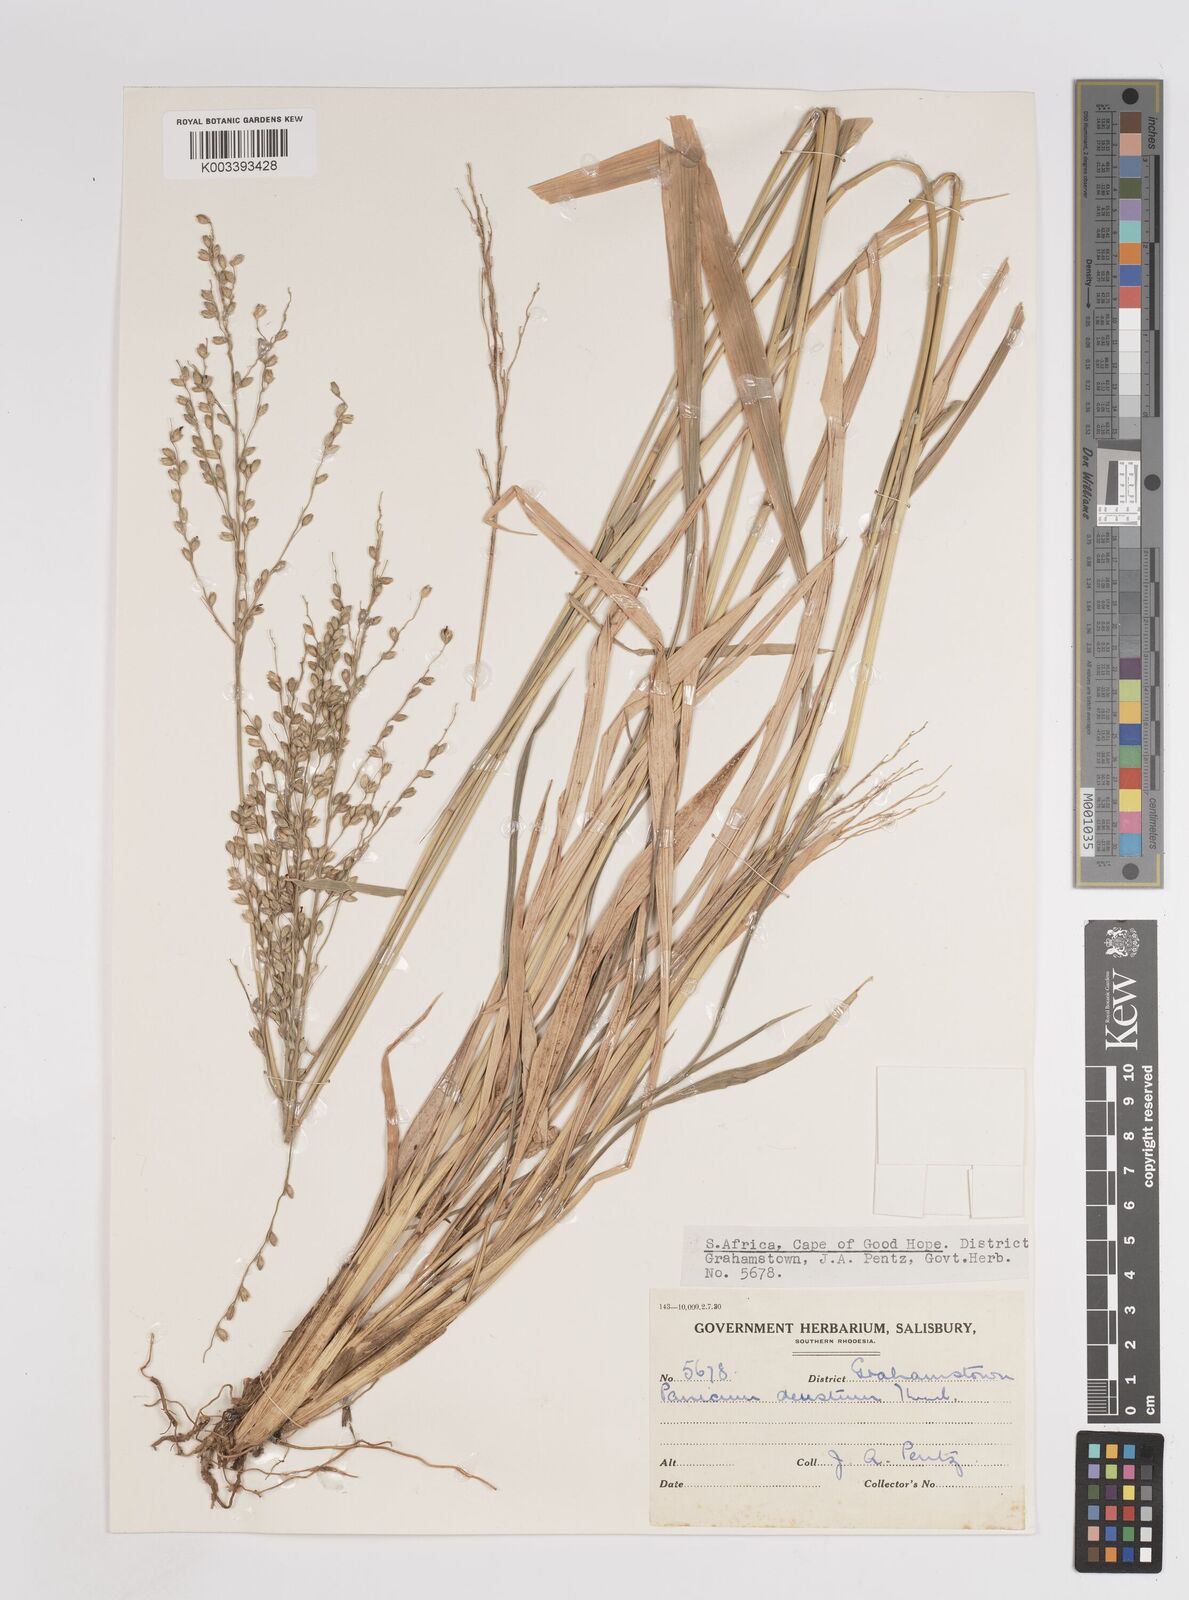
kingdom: Plantae
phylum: Tracheophyta
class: Liliopsida
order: Poales
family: Poaceae
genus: Panicum
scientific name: Panicum deustum
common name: Reed panicum
